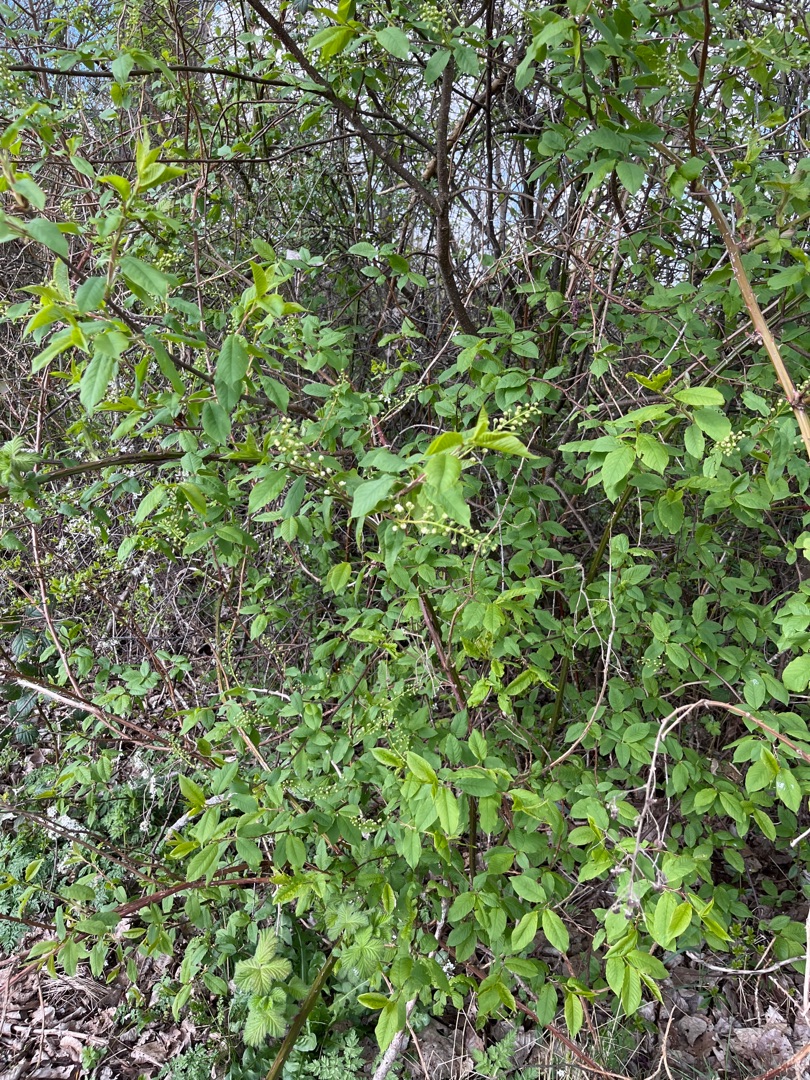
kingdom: Plantae
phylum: Tracheophyta
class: Magnoliopsida
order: Rosales
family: Rosaceae
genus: Prunus
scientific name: Prunus padus
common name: Almindelig hæg
